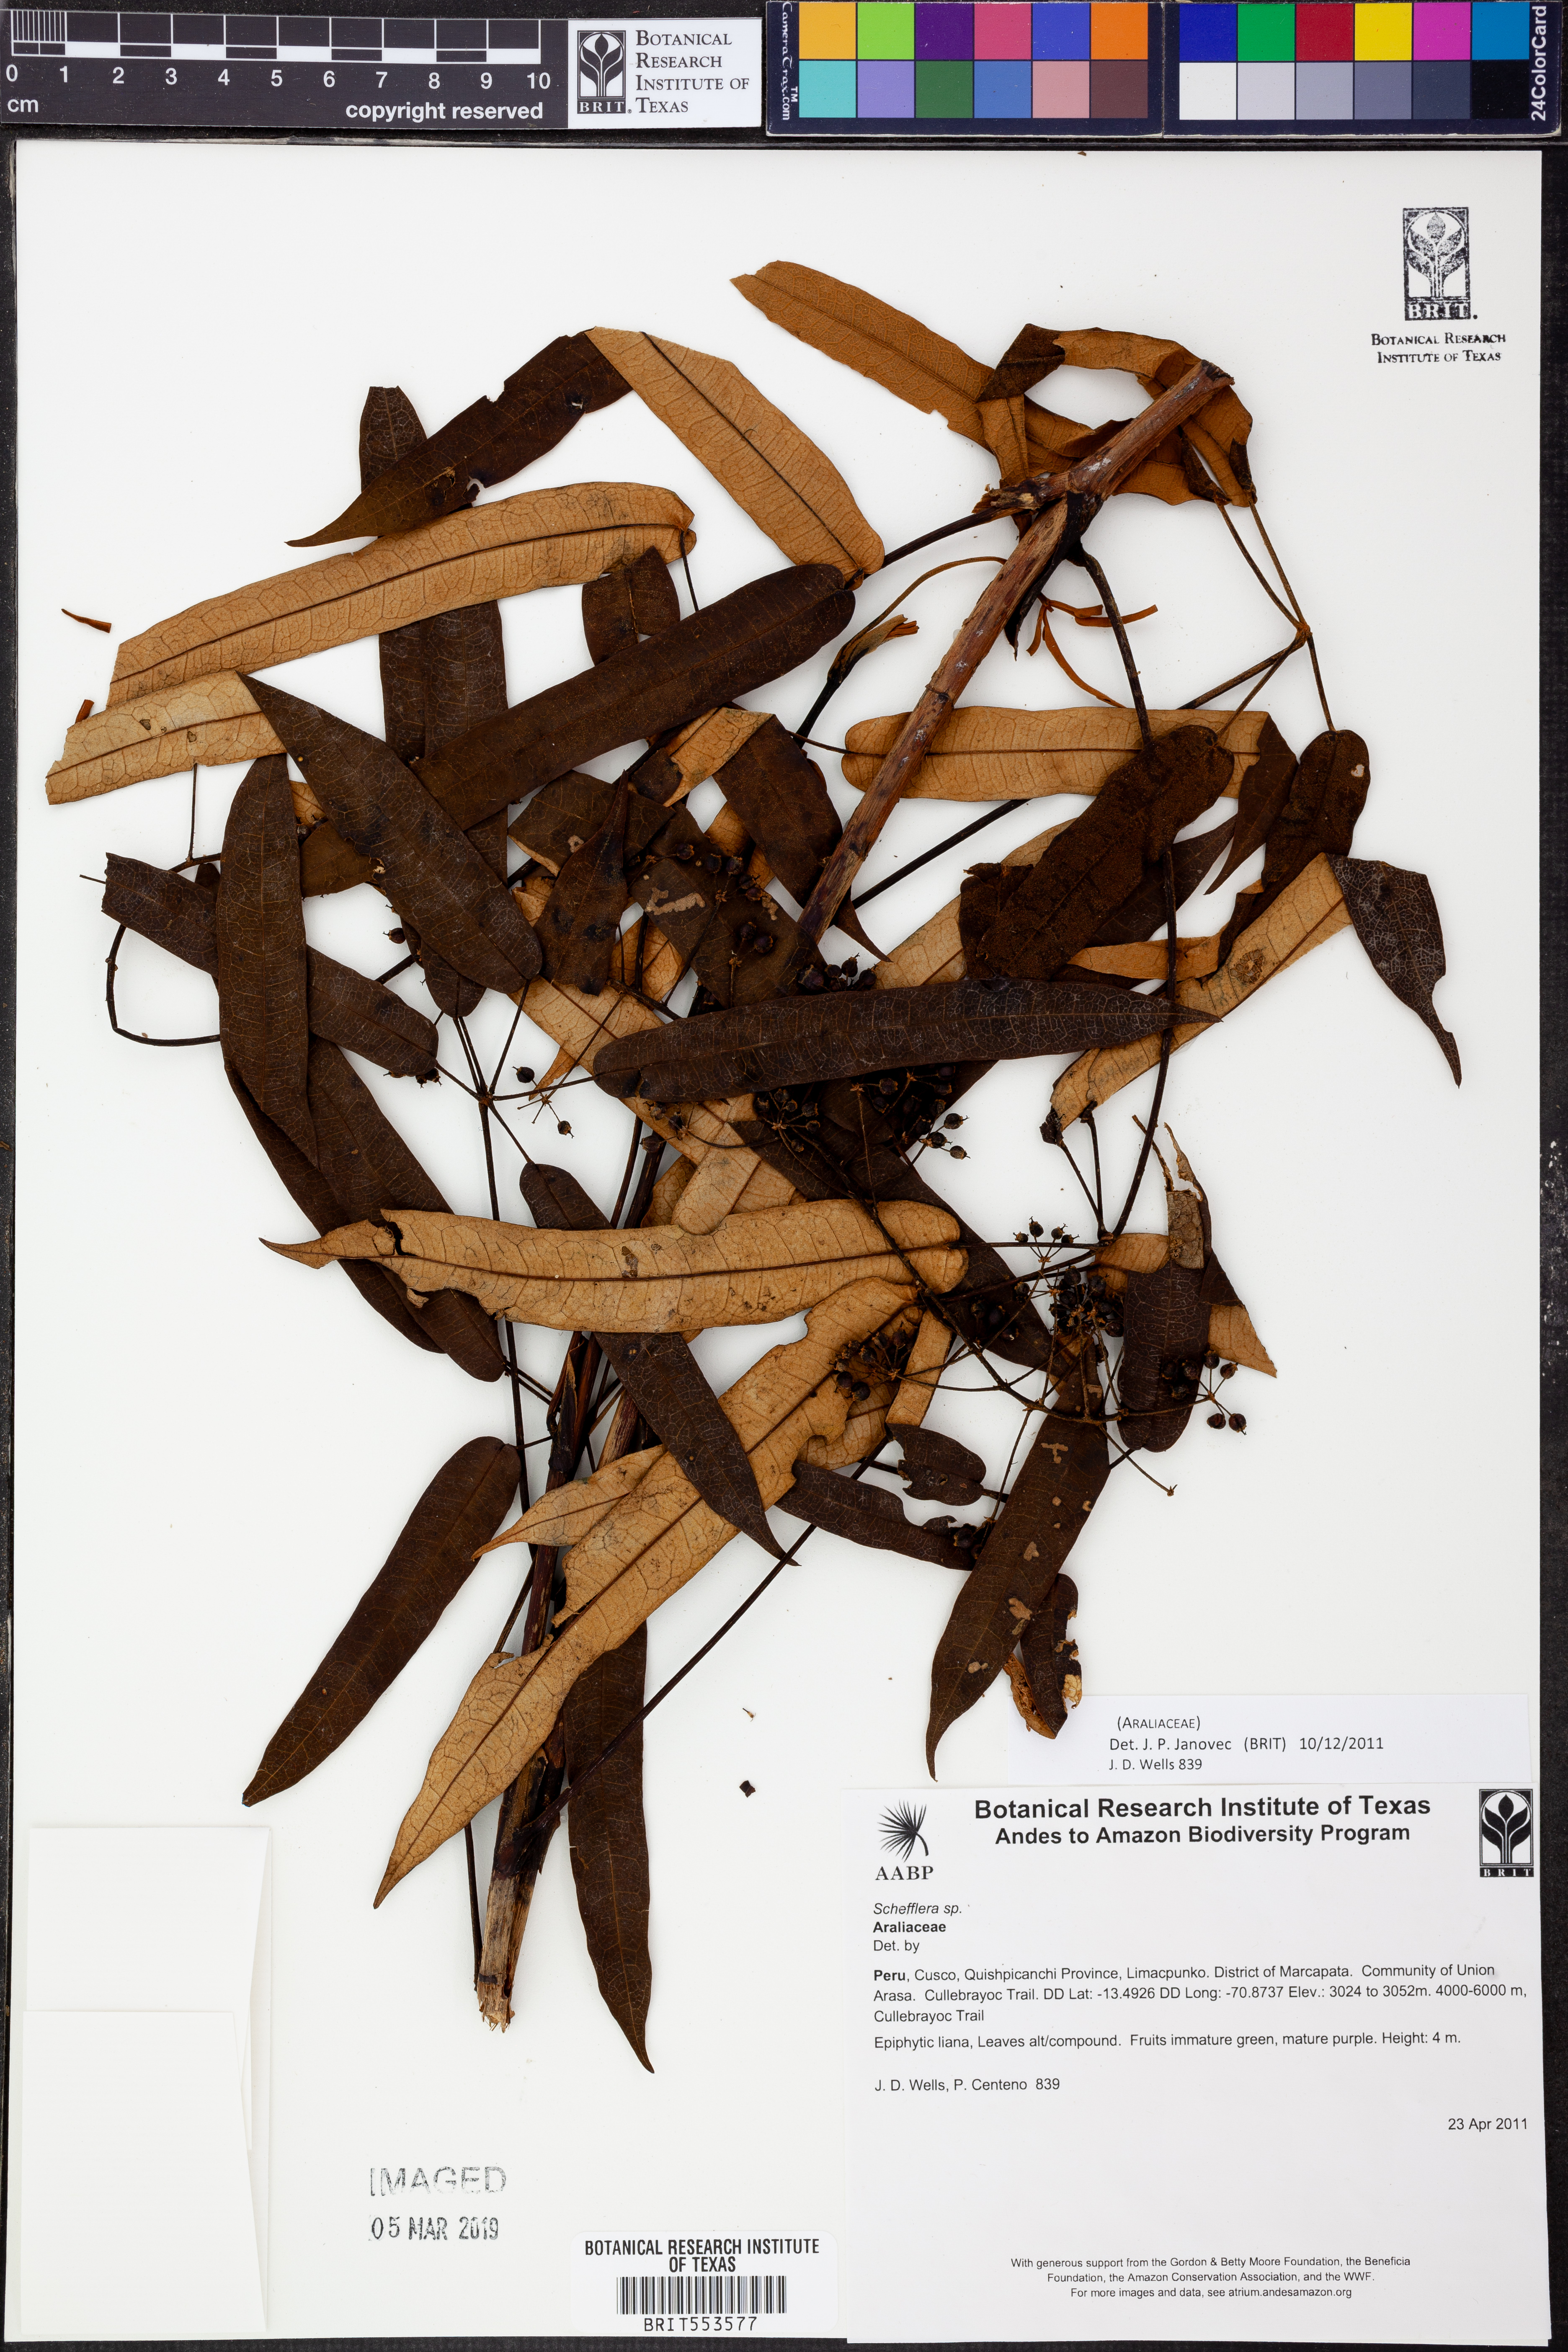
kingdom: Plantae
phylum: Tracheophyta
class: Magnoliopsida
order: Apiales
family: Araliaceae
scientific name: Araliaceae
